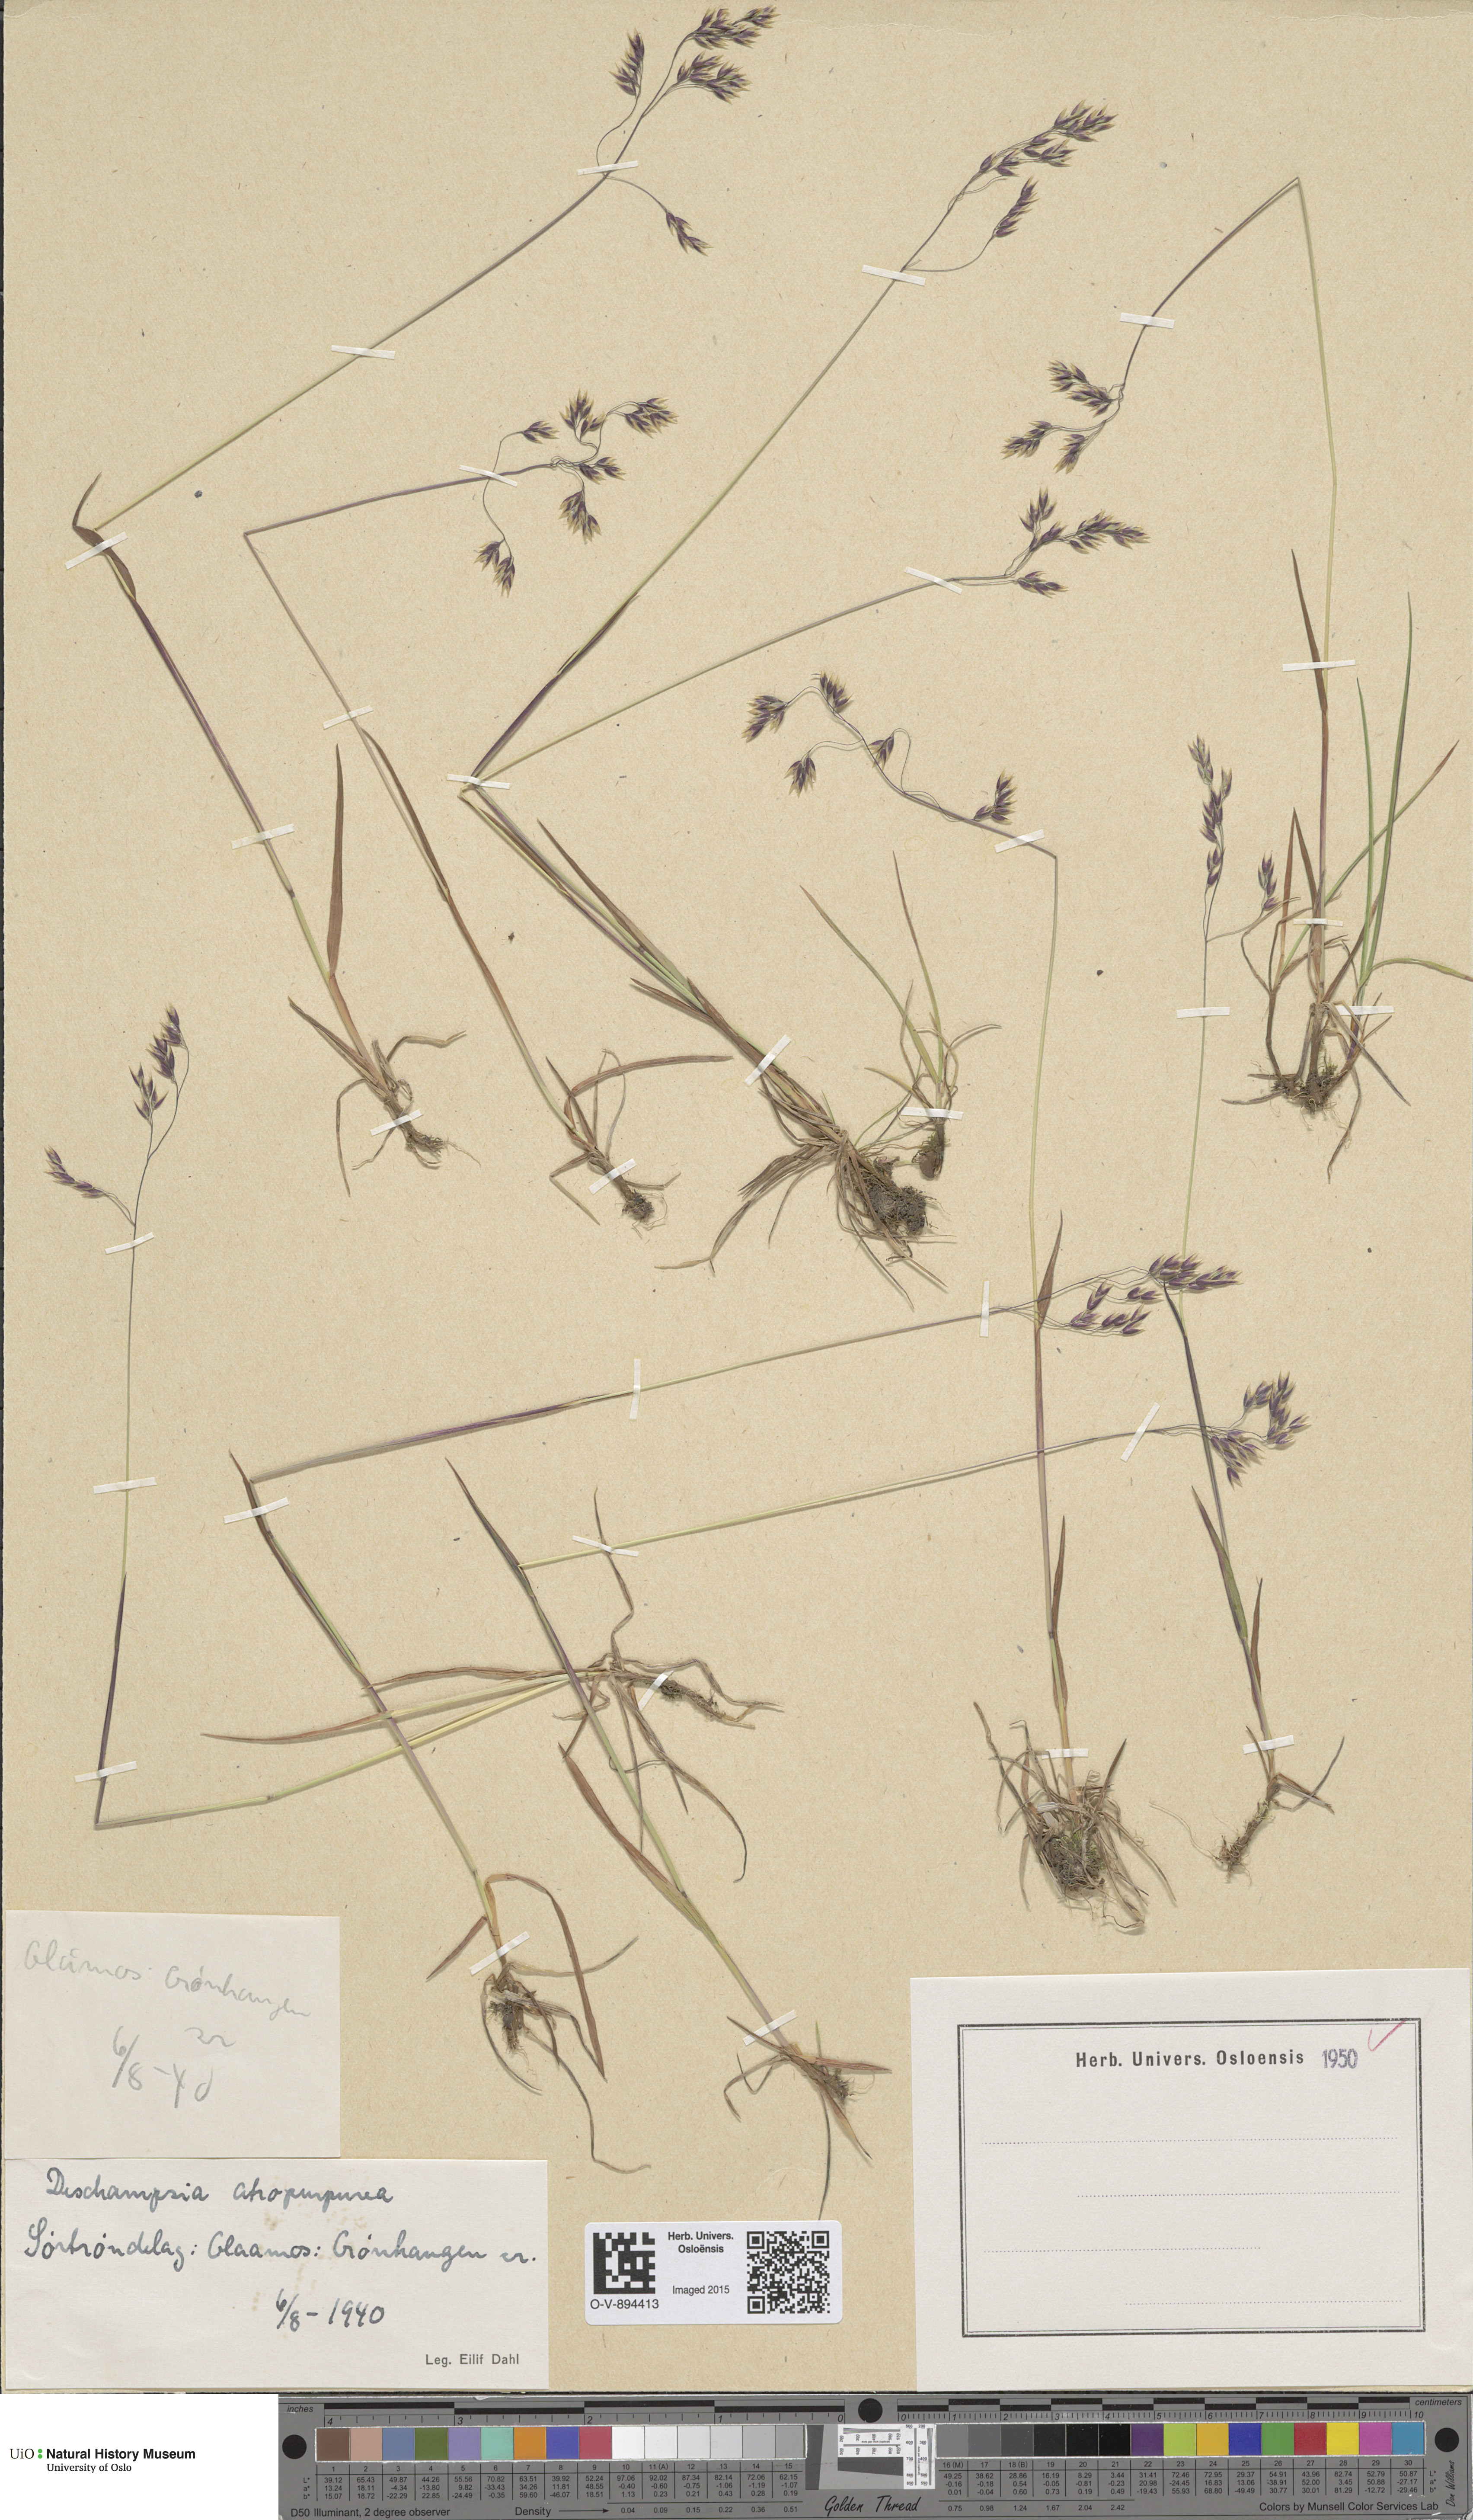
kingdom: Plantae
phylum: Tracheophyta
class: Liliopsida
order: Poales
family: Poaceae
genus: Vahlodea
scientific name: Vahlodea atropurpurea
